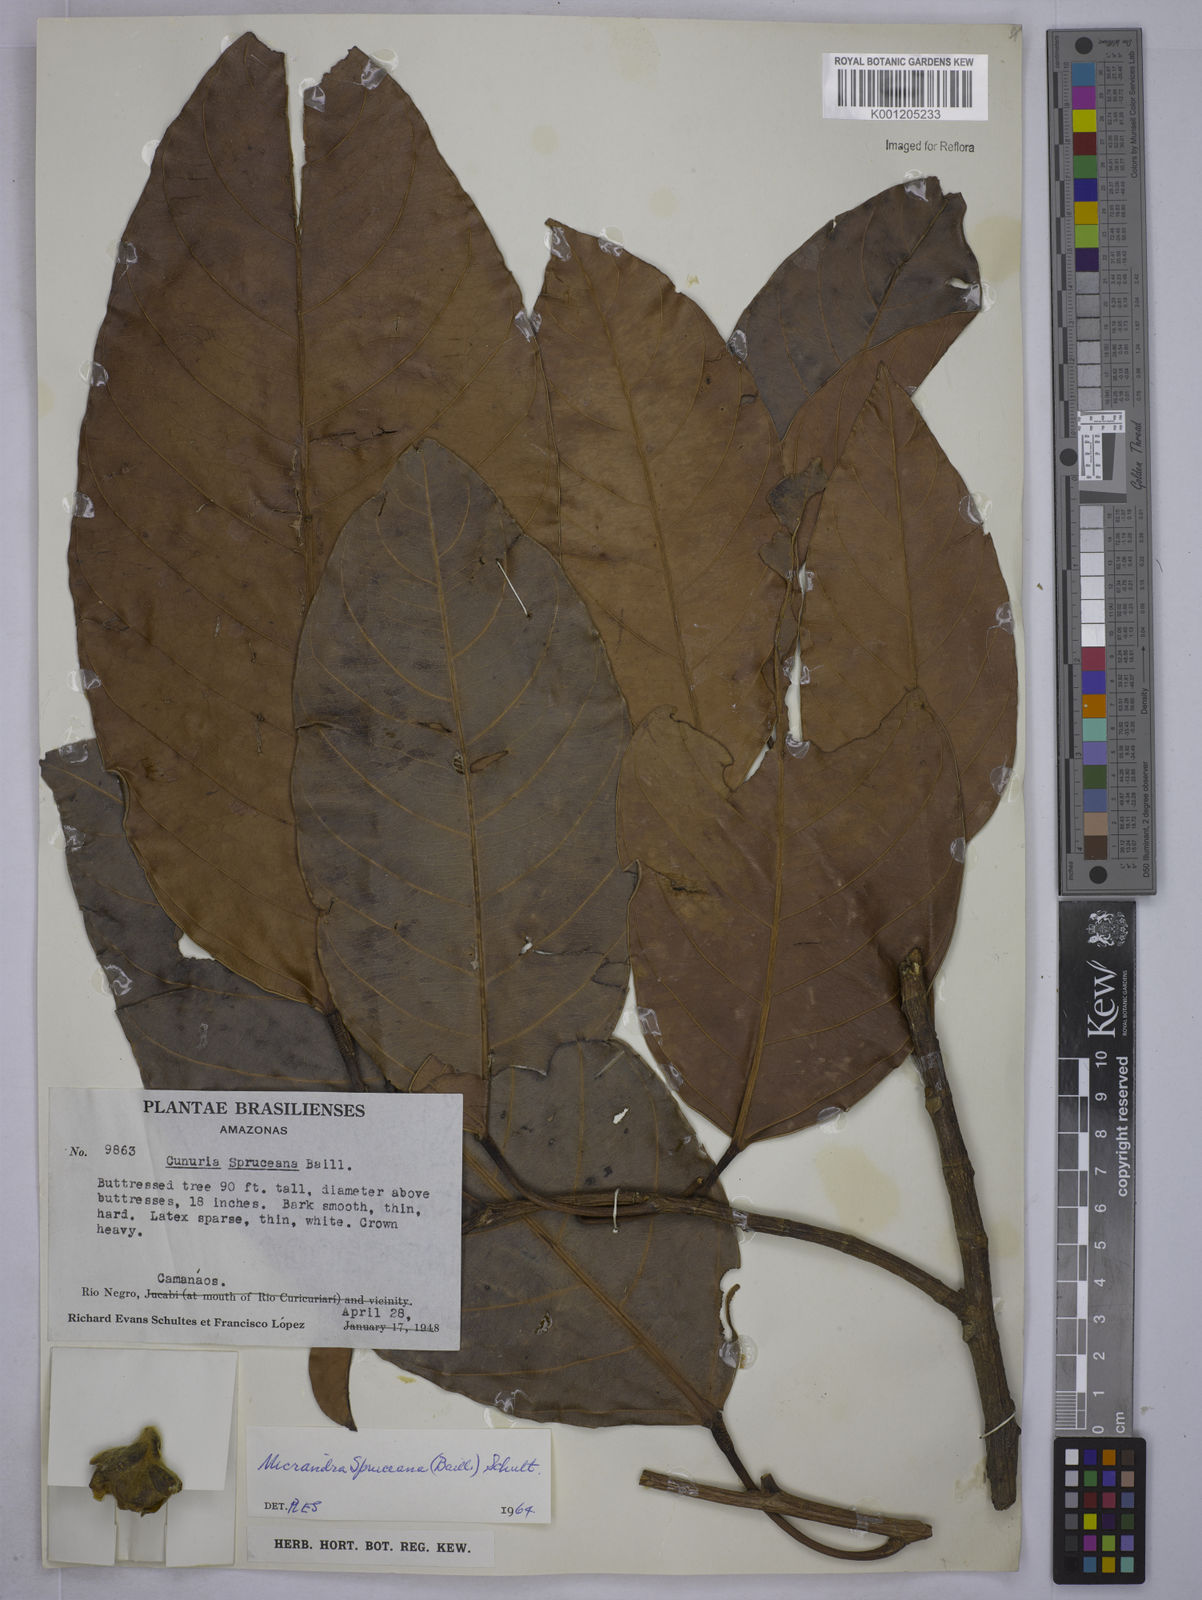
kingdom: Plantae
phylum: Tracheophyta
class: Magnoliopsida
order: Malpighiales
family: Euphorbiaceae
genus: Micrandra
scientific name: Micrandra spruceana
